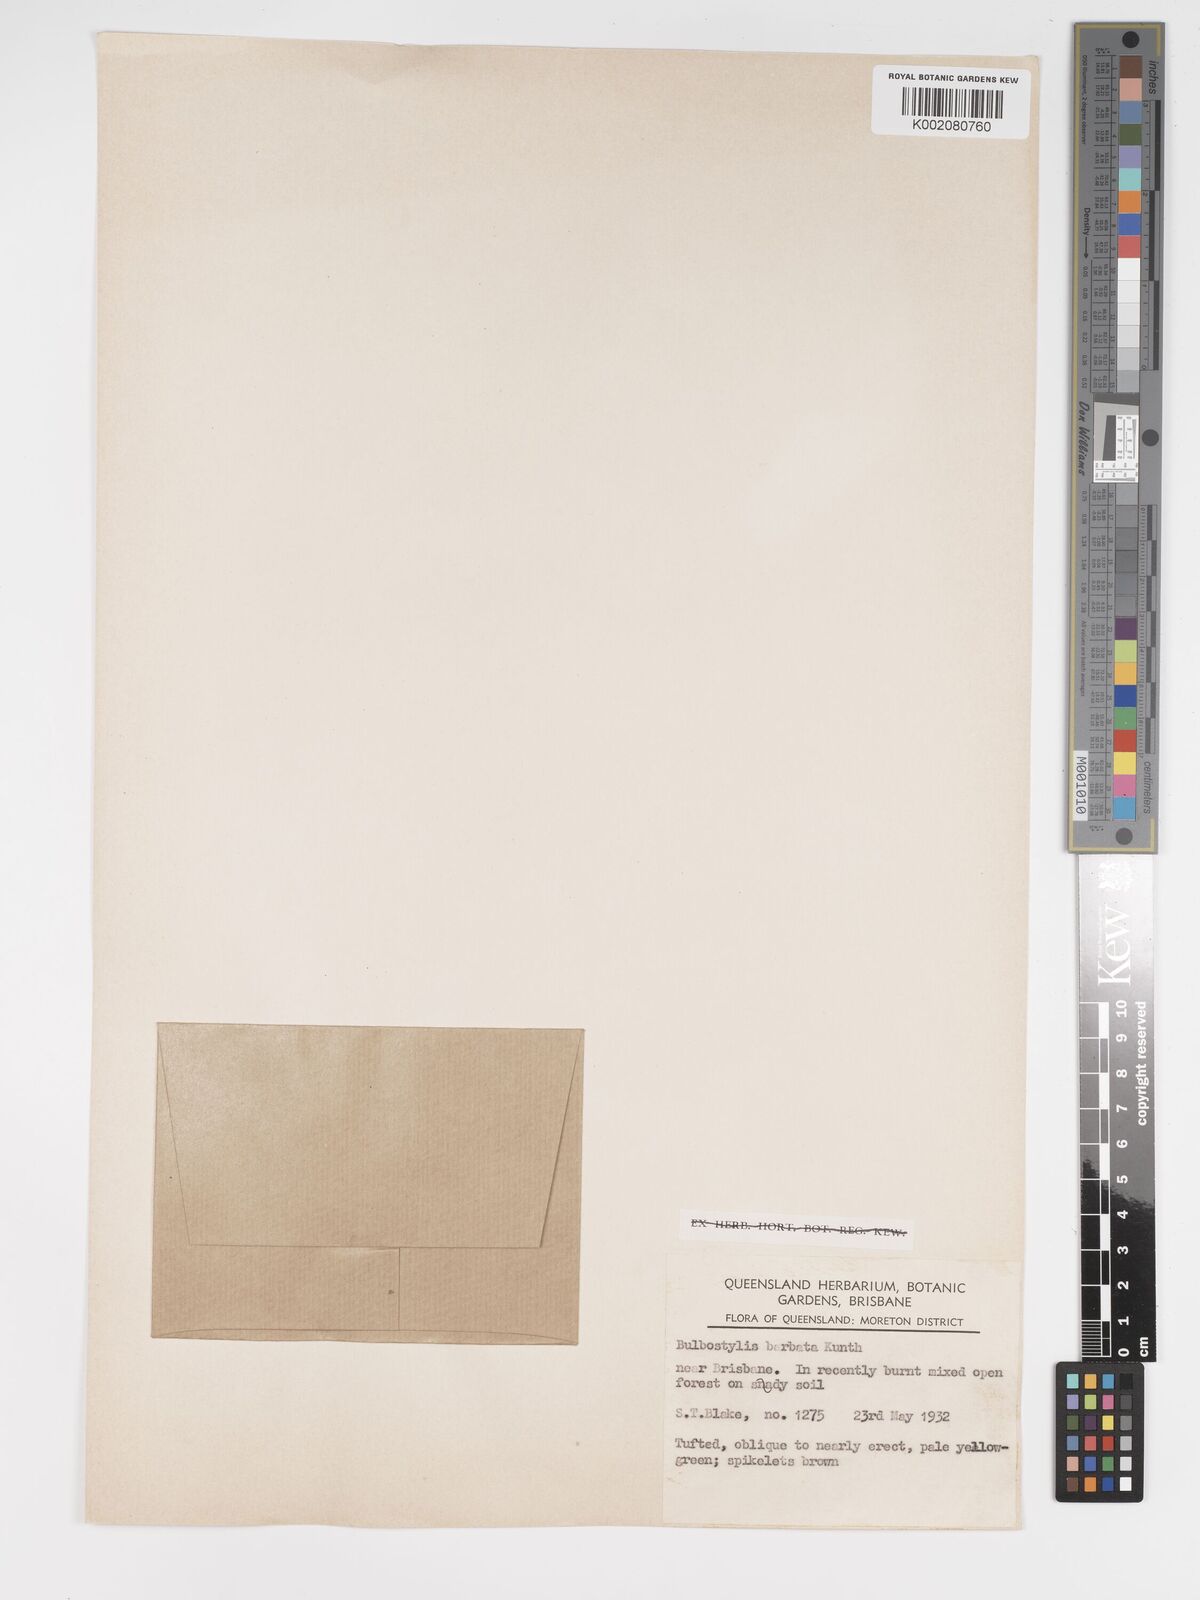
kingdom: Plantae
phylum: Tracheophyta
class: Liliopsida
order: Poales
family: Cyperaceae
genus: Bulbostylis
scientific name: Bulbostylis barbata
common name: Watergrass
